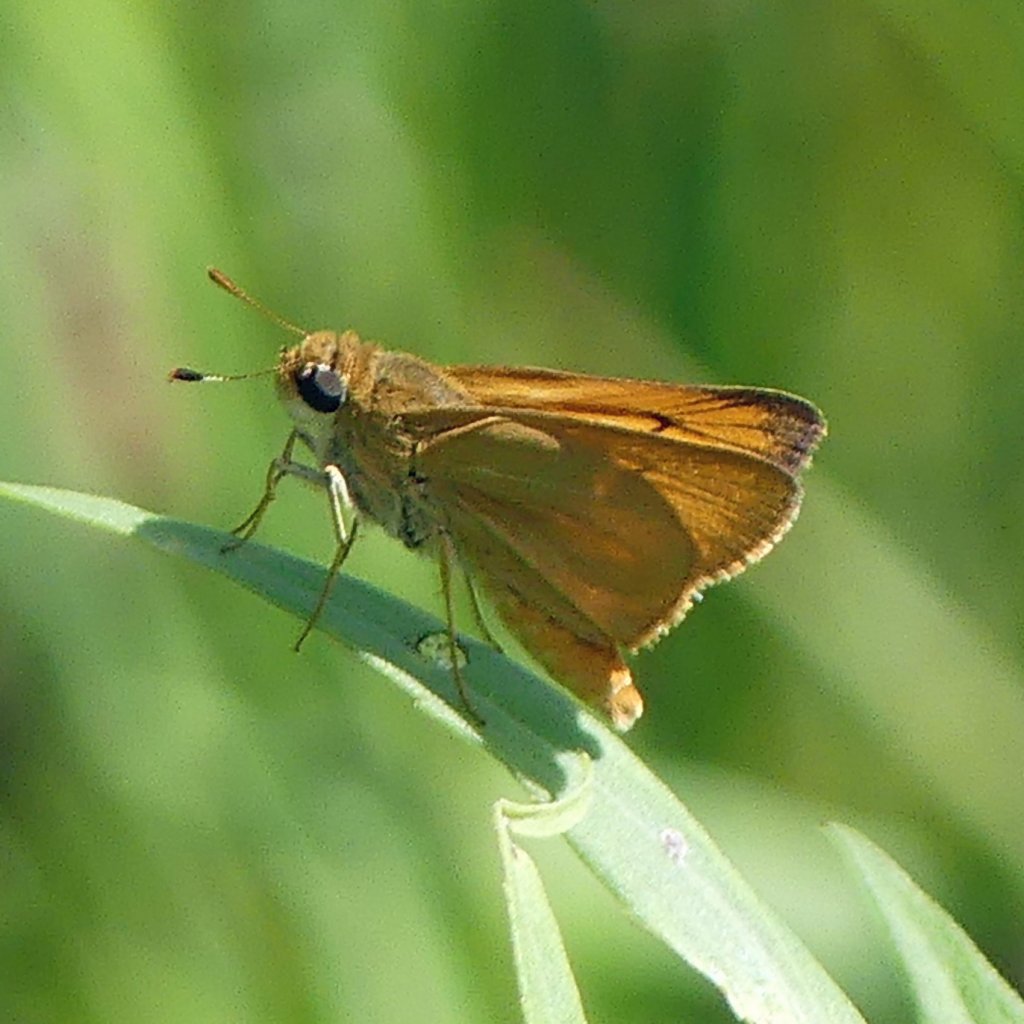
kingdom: Animalia
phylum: Arthropoda
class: Insecta
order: Lepidoptera
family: Hesperiidae
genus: Atrytone
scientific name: Atrytone delaware
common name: Delaware Skipper
